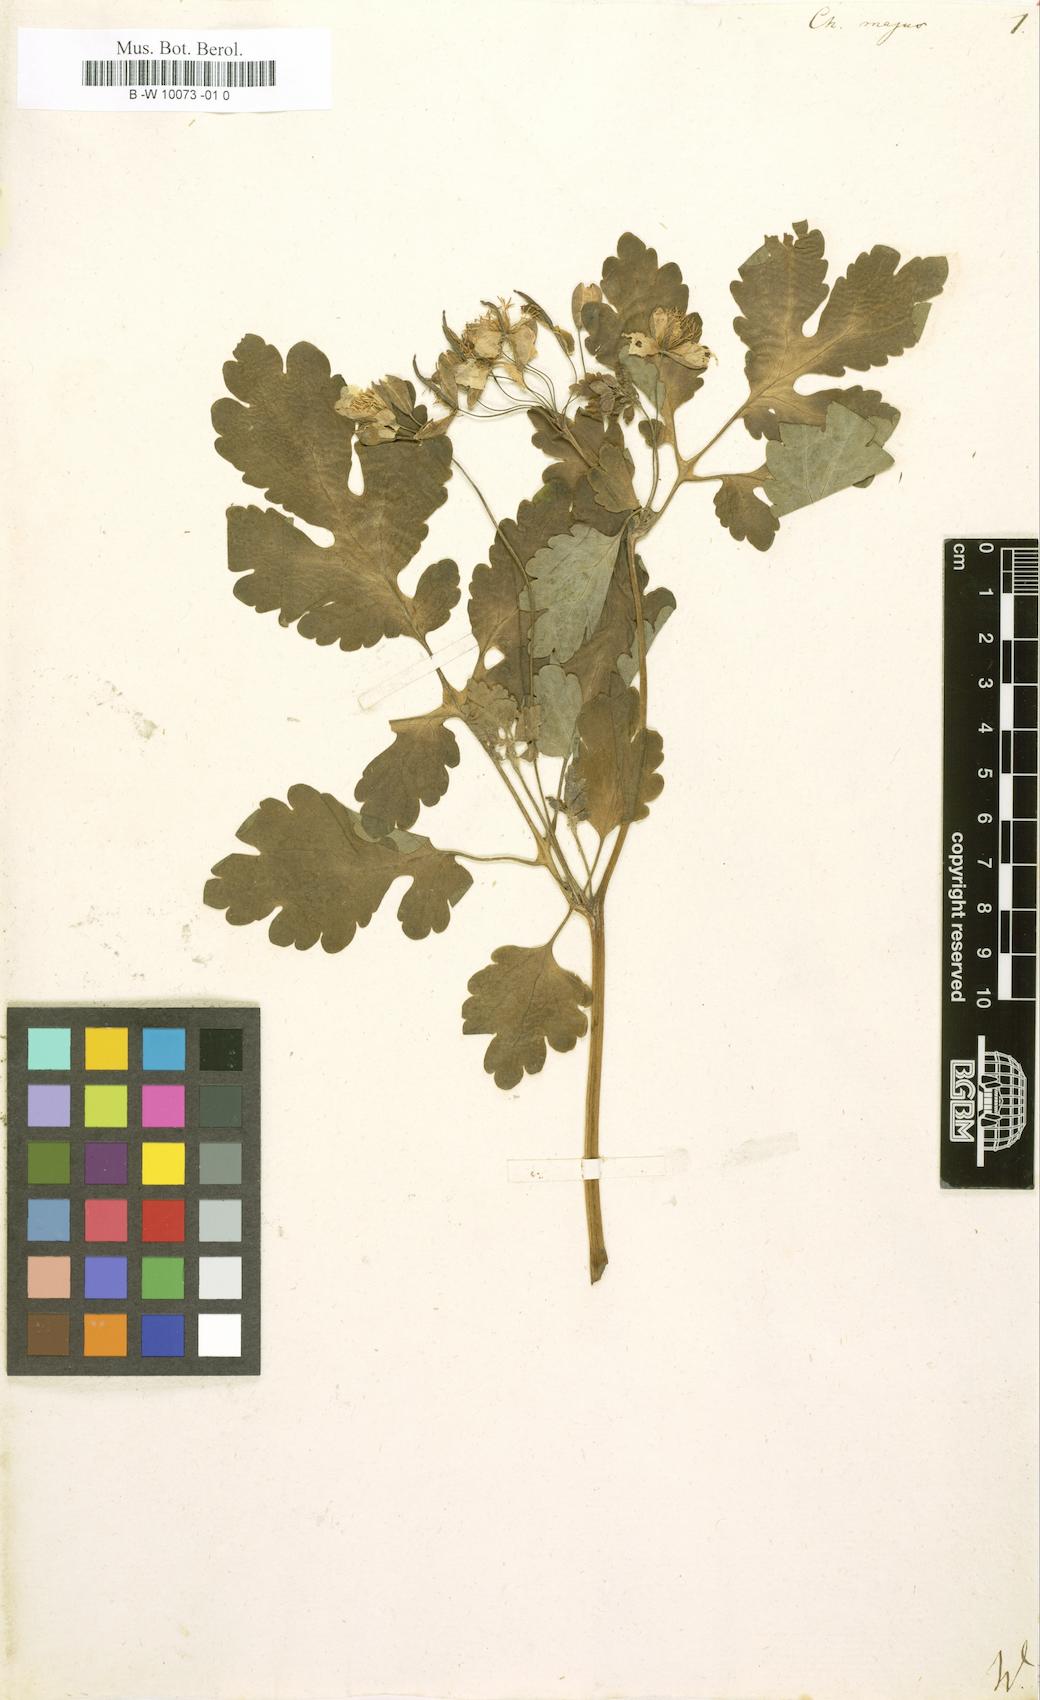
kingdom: Plantae
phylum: Tracheophyta
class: Magnoliopsida
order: Ranunculales
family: Papaveraceae
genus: Chelidonium
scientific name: Chelidonium majus
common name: Greater celandine
